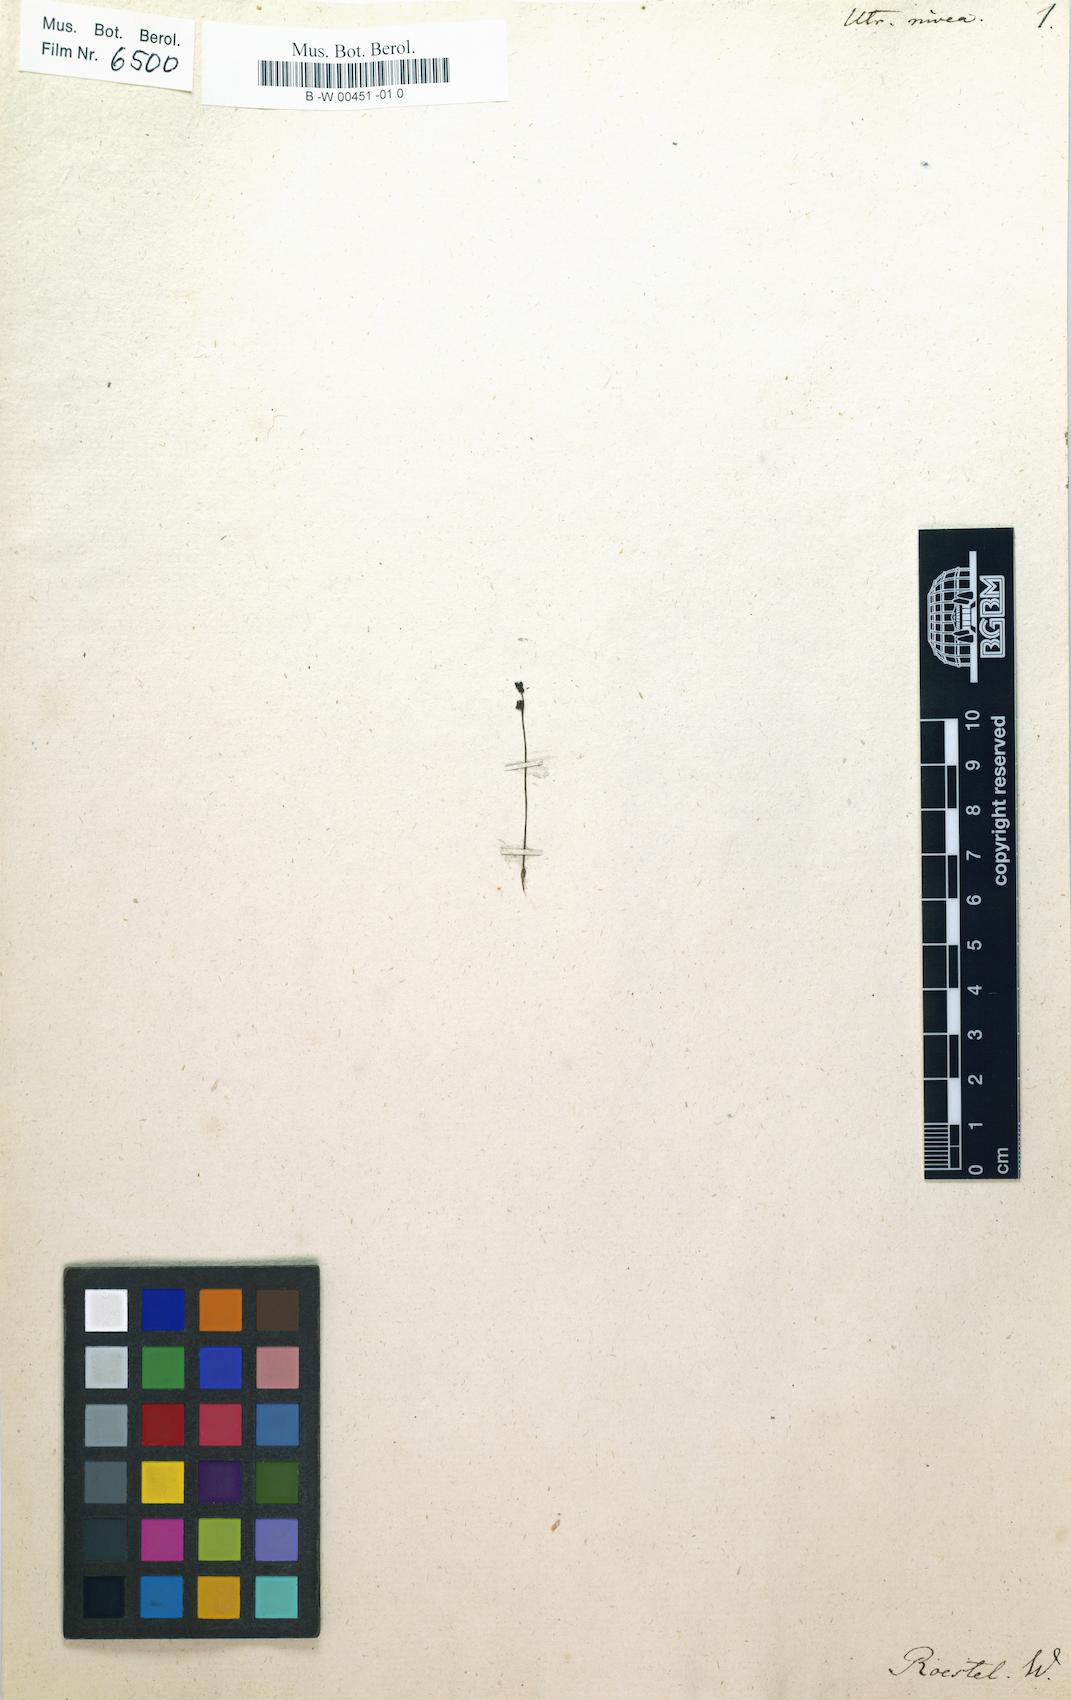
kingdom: Plantae
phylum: Tracheophyta
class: Magnoliopsida
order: Lamiales
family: Lentibulariaceae
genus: Utricularia
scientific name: Utricularia
